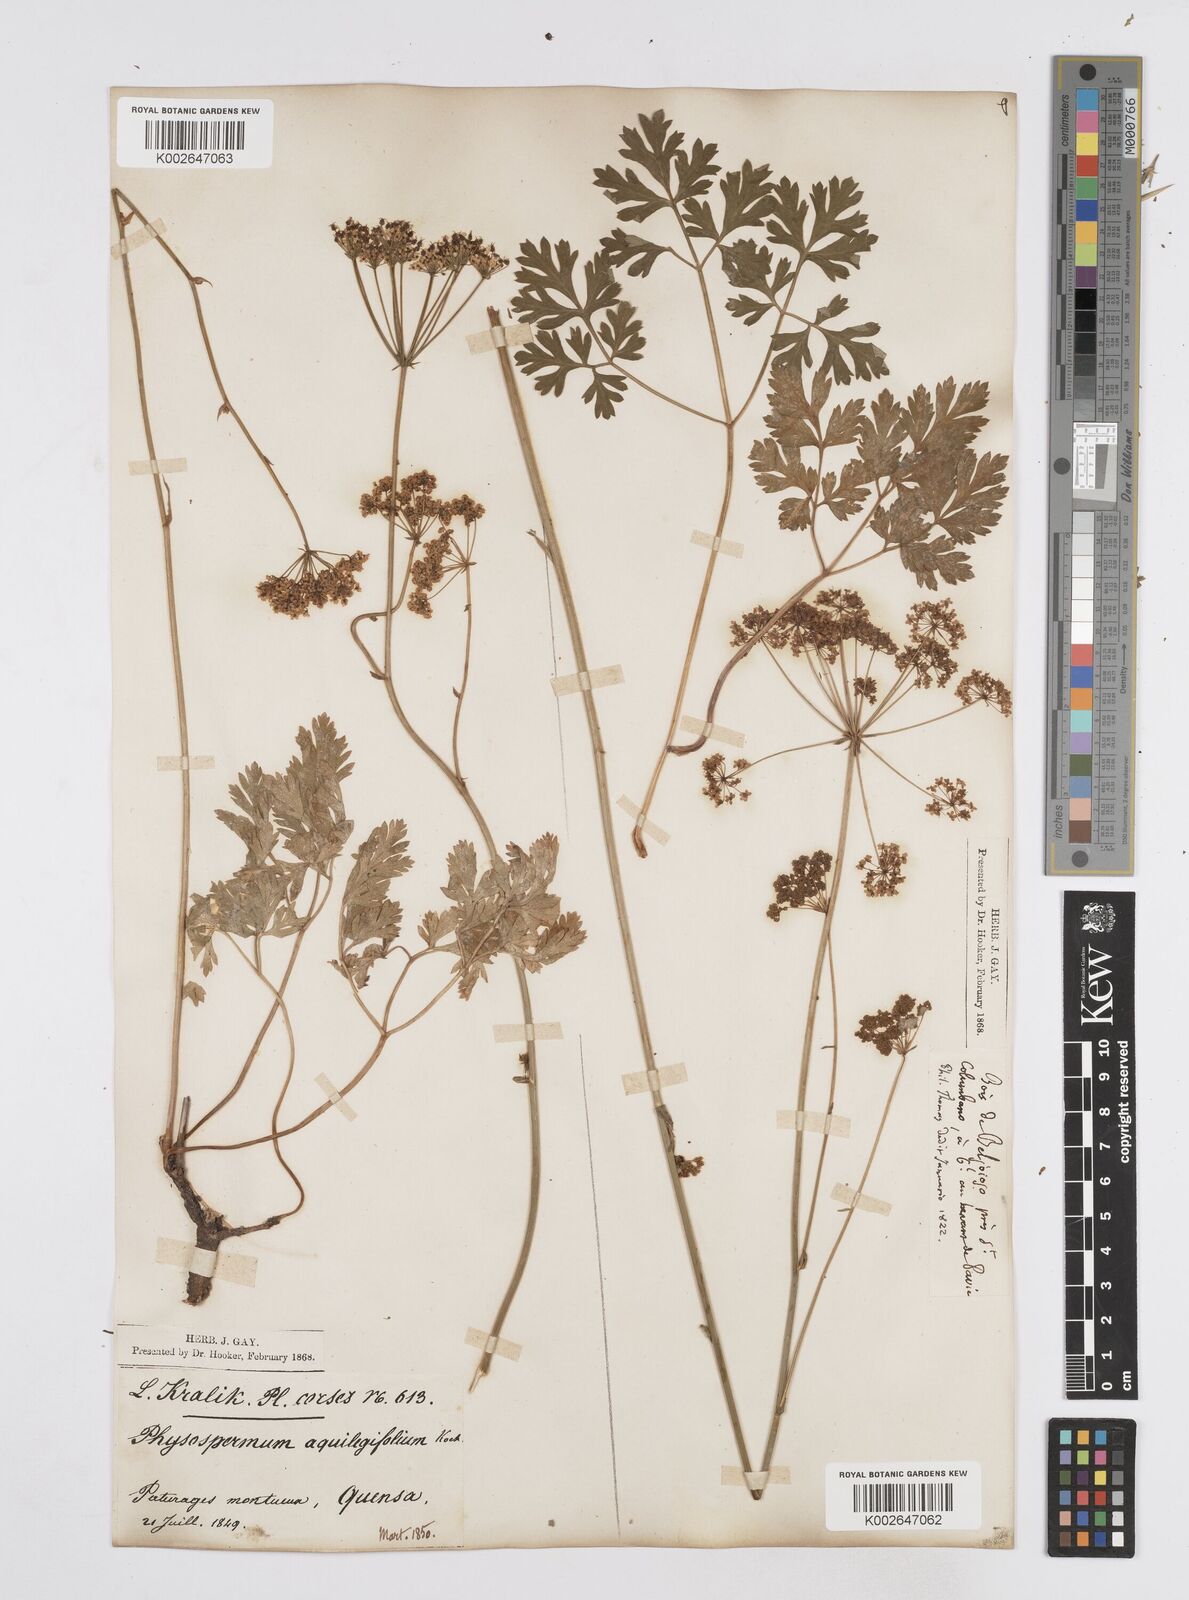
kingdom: Plantae
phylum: Tracheophyta
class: Magnoliopsida
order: Apiales
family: Apiaceae
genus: Physospermum
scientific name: Physospermum cornubiense
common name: Bladderseed
